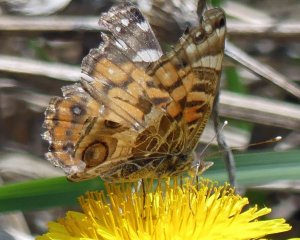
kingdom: Animalia
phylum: Arthropoda
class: Insecta
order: Lepidoptera
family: Nymphalidae
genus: Vanessa
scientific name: Vanessa virginiensis
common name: American Lady
